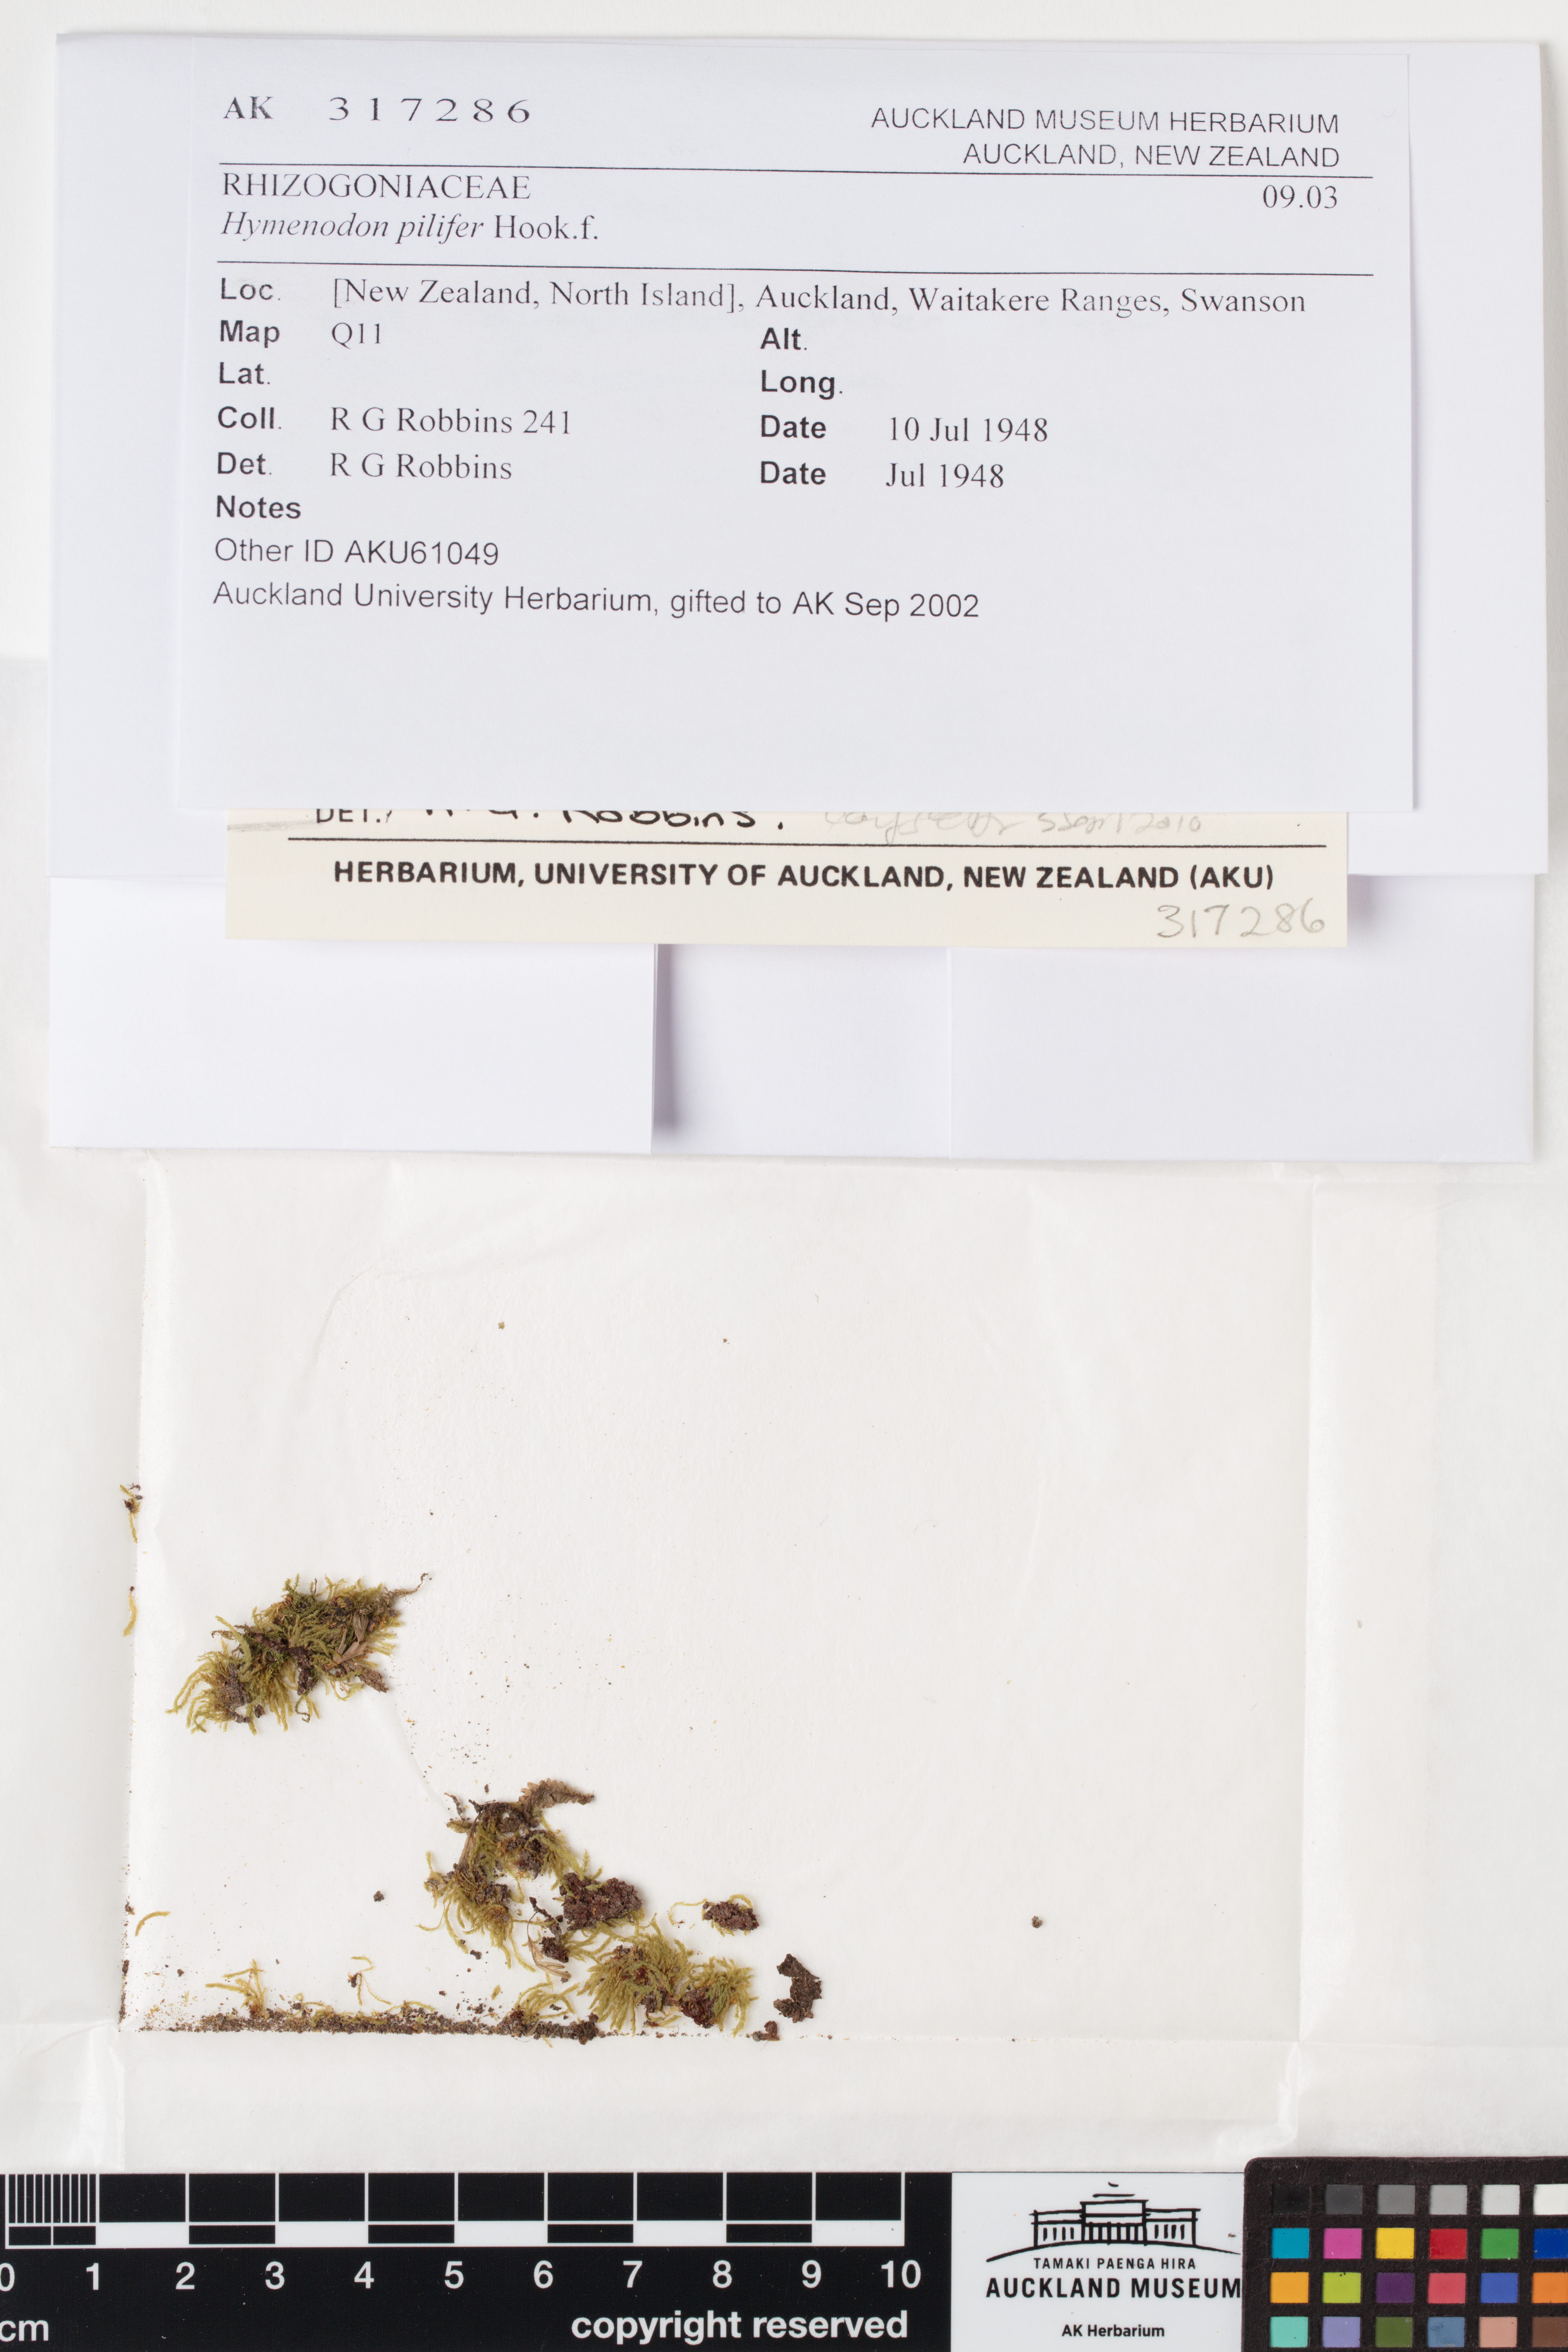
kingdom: Plantae
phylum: Bryophyta
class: Bryopsida
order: Orthodontiales
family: Orthodontiaceae
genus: Hymenodon
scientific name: Hymenodon pilifer
